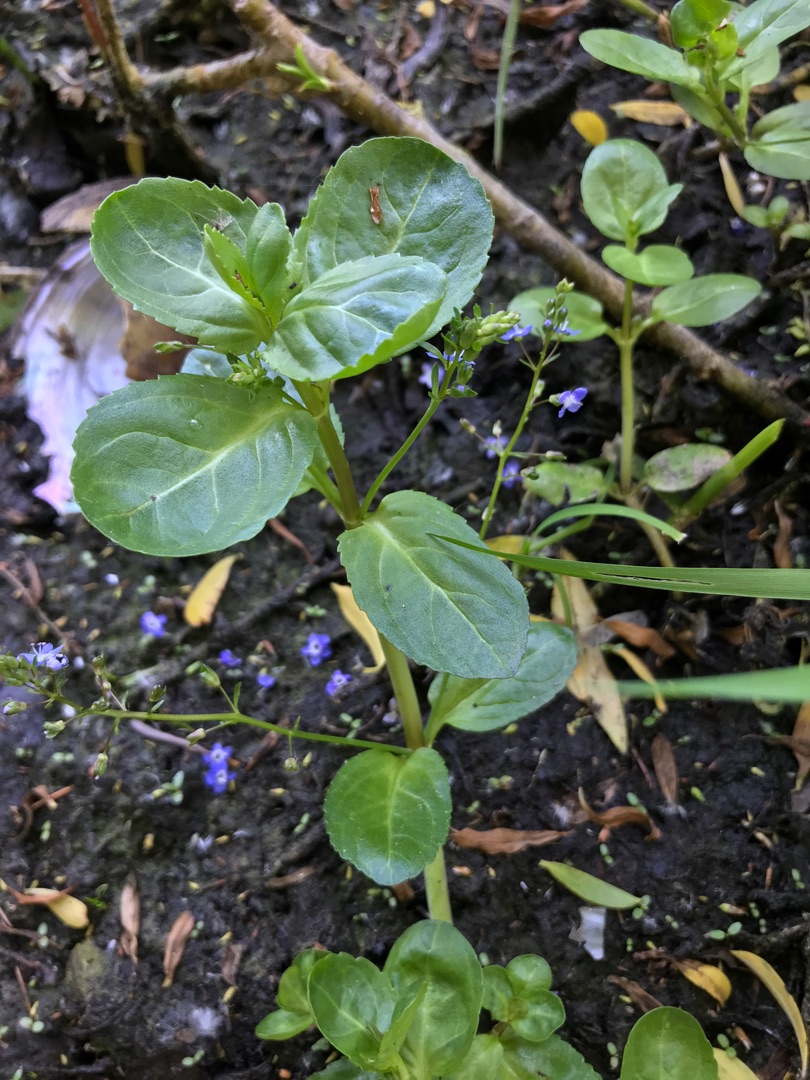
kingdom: Plantae
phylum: Tracheophyta
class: Magnoliopsida
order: Lamiales
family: Plantaginaceae
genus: Veronica
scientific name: Veronica beccabunga
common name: Tykbladet ærenpris
